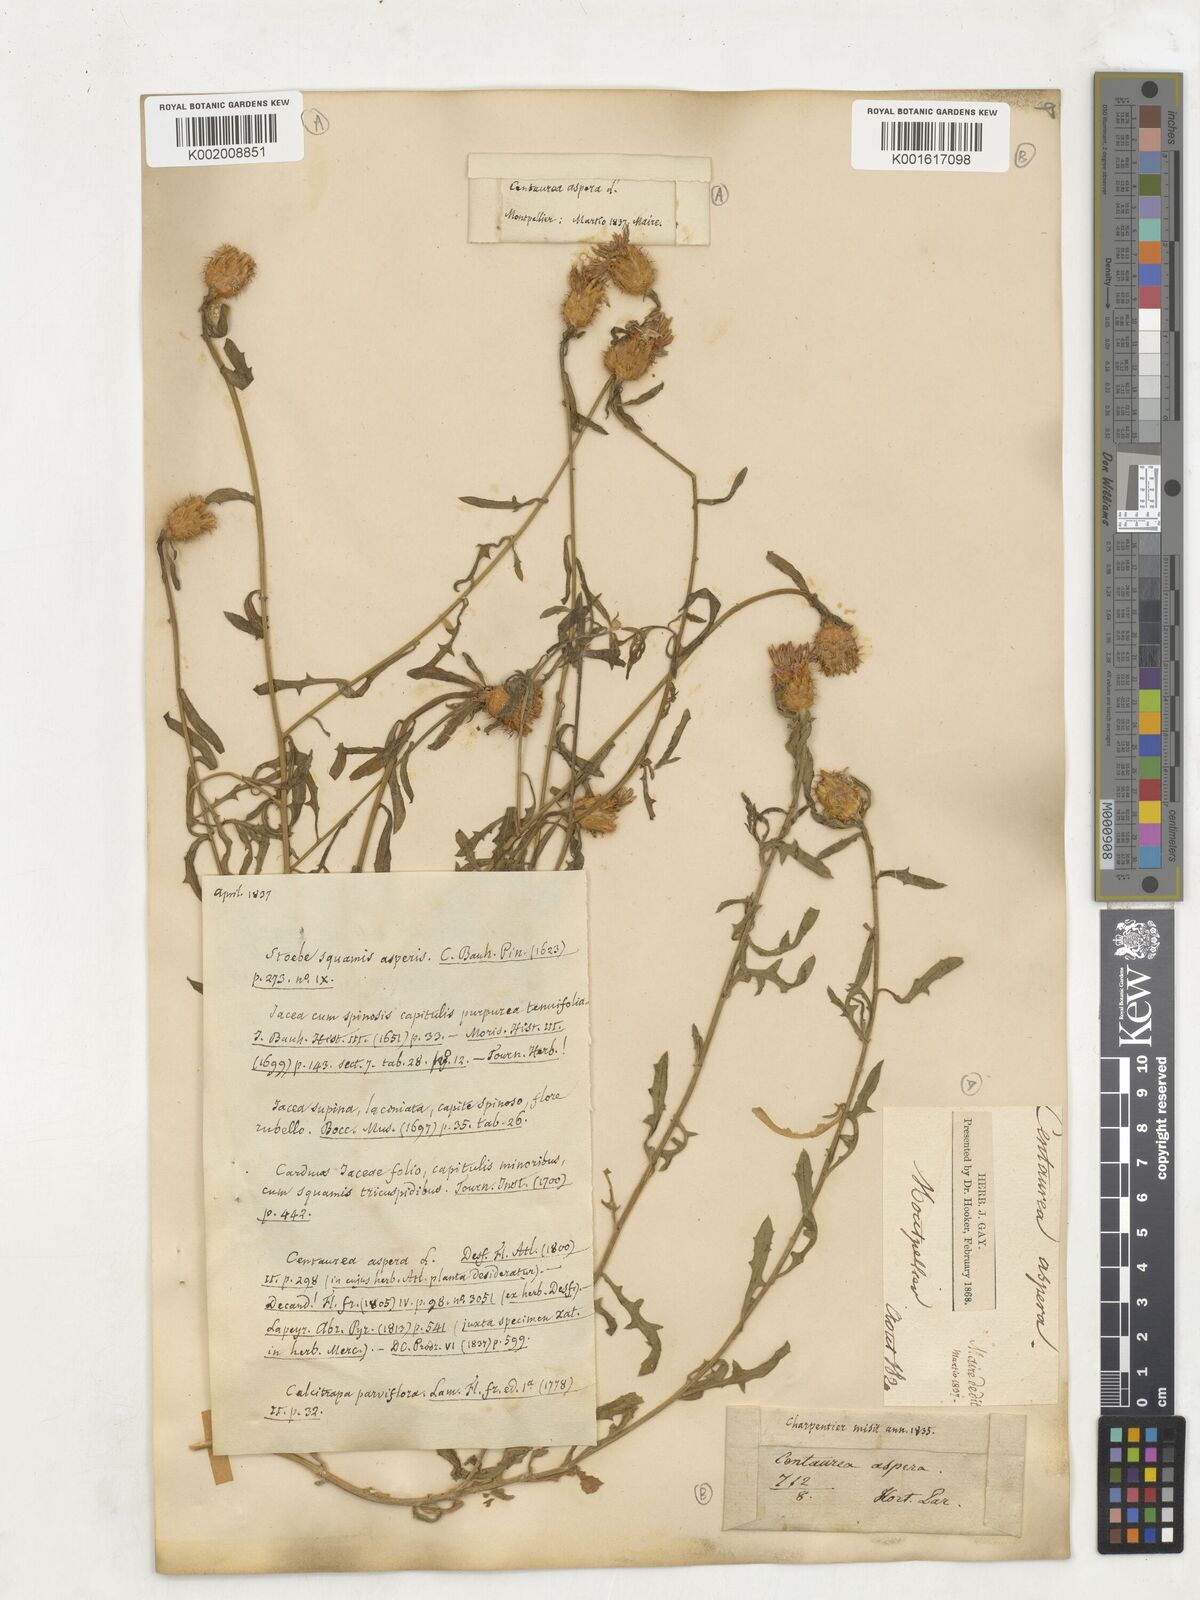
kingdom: Plantae
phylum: Tracheophyta
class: Magnoliopsida
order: Asterales
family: Asteraceae
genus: Centaurea
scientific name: Centaurea aspera
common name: Rough star-thistle
